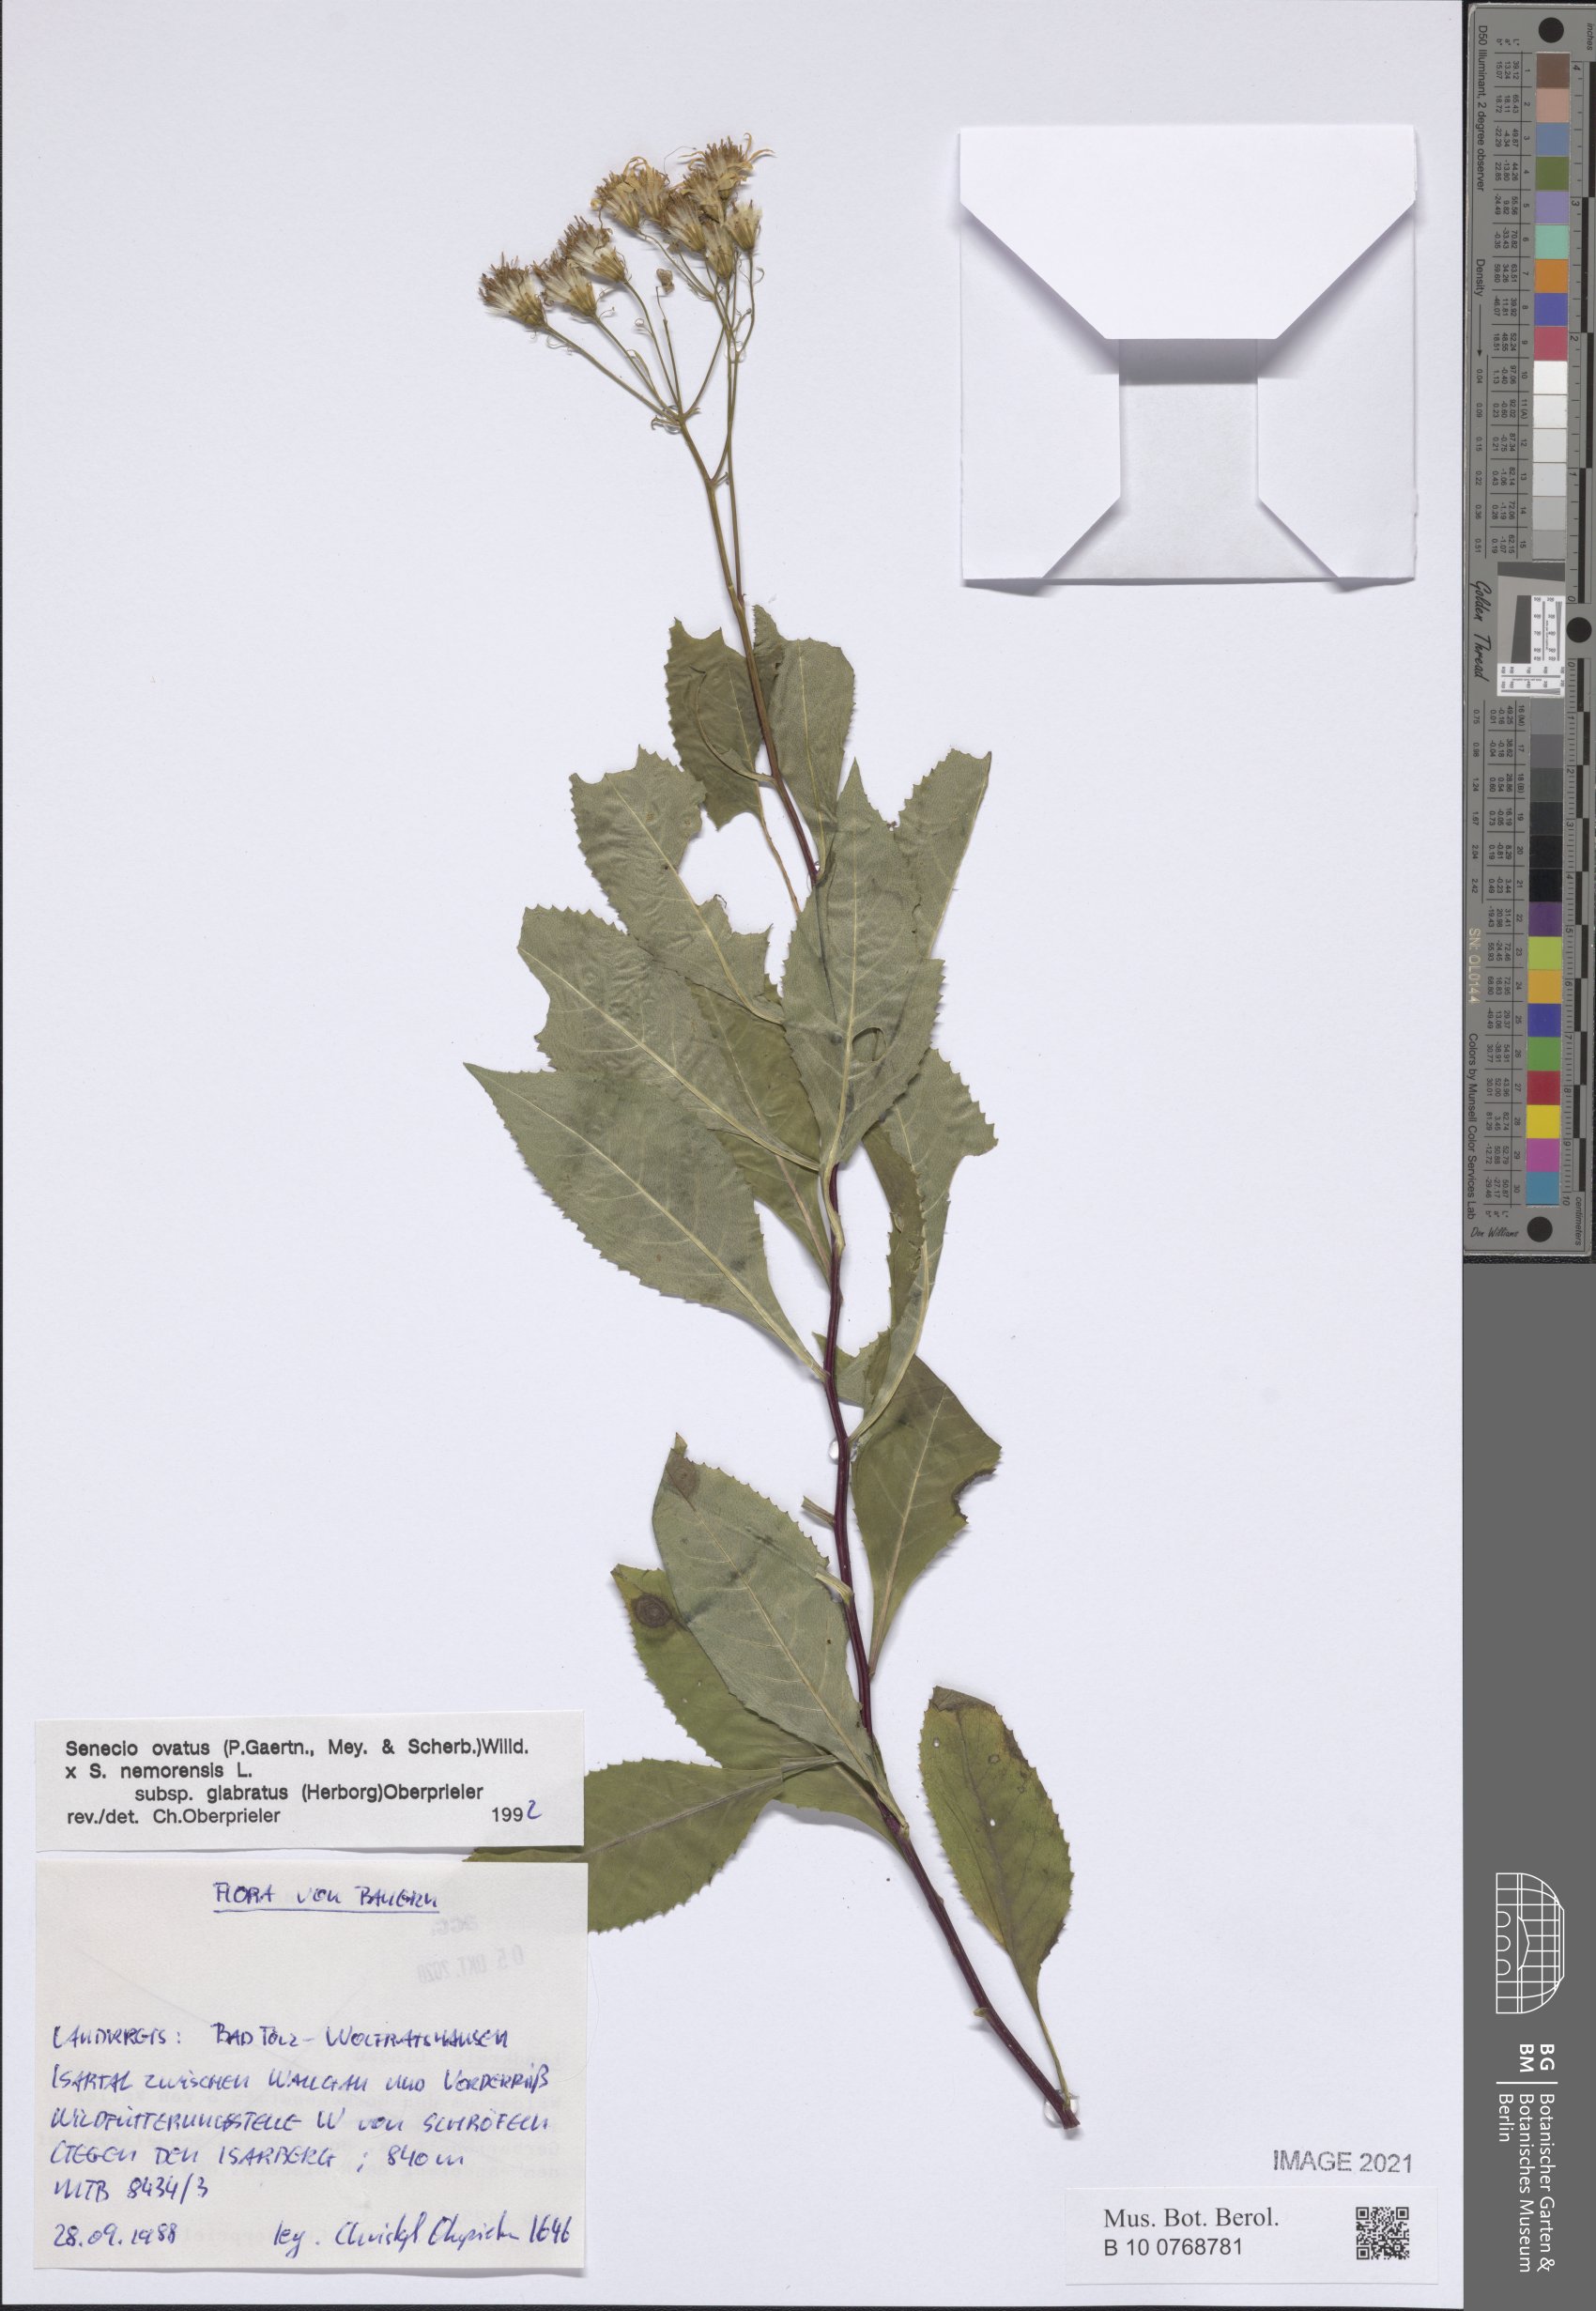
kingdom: Plantae
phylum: Tracheophyta
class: Magnoliopsida
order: Asterales
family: Asteraceae
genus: Senecio
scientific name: Senecio ovatus
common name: Wood ragwort
